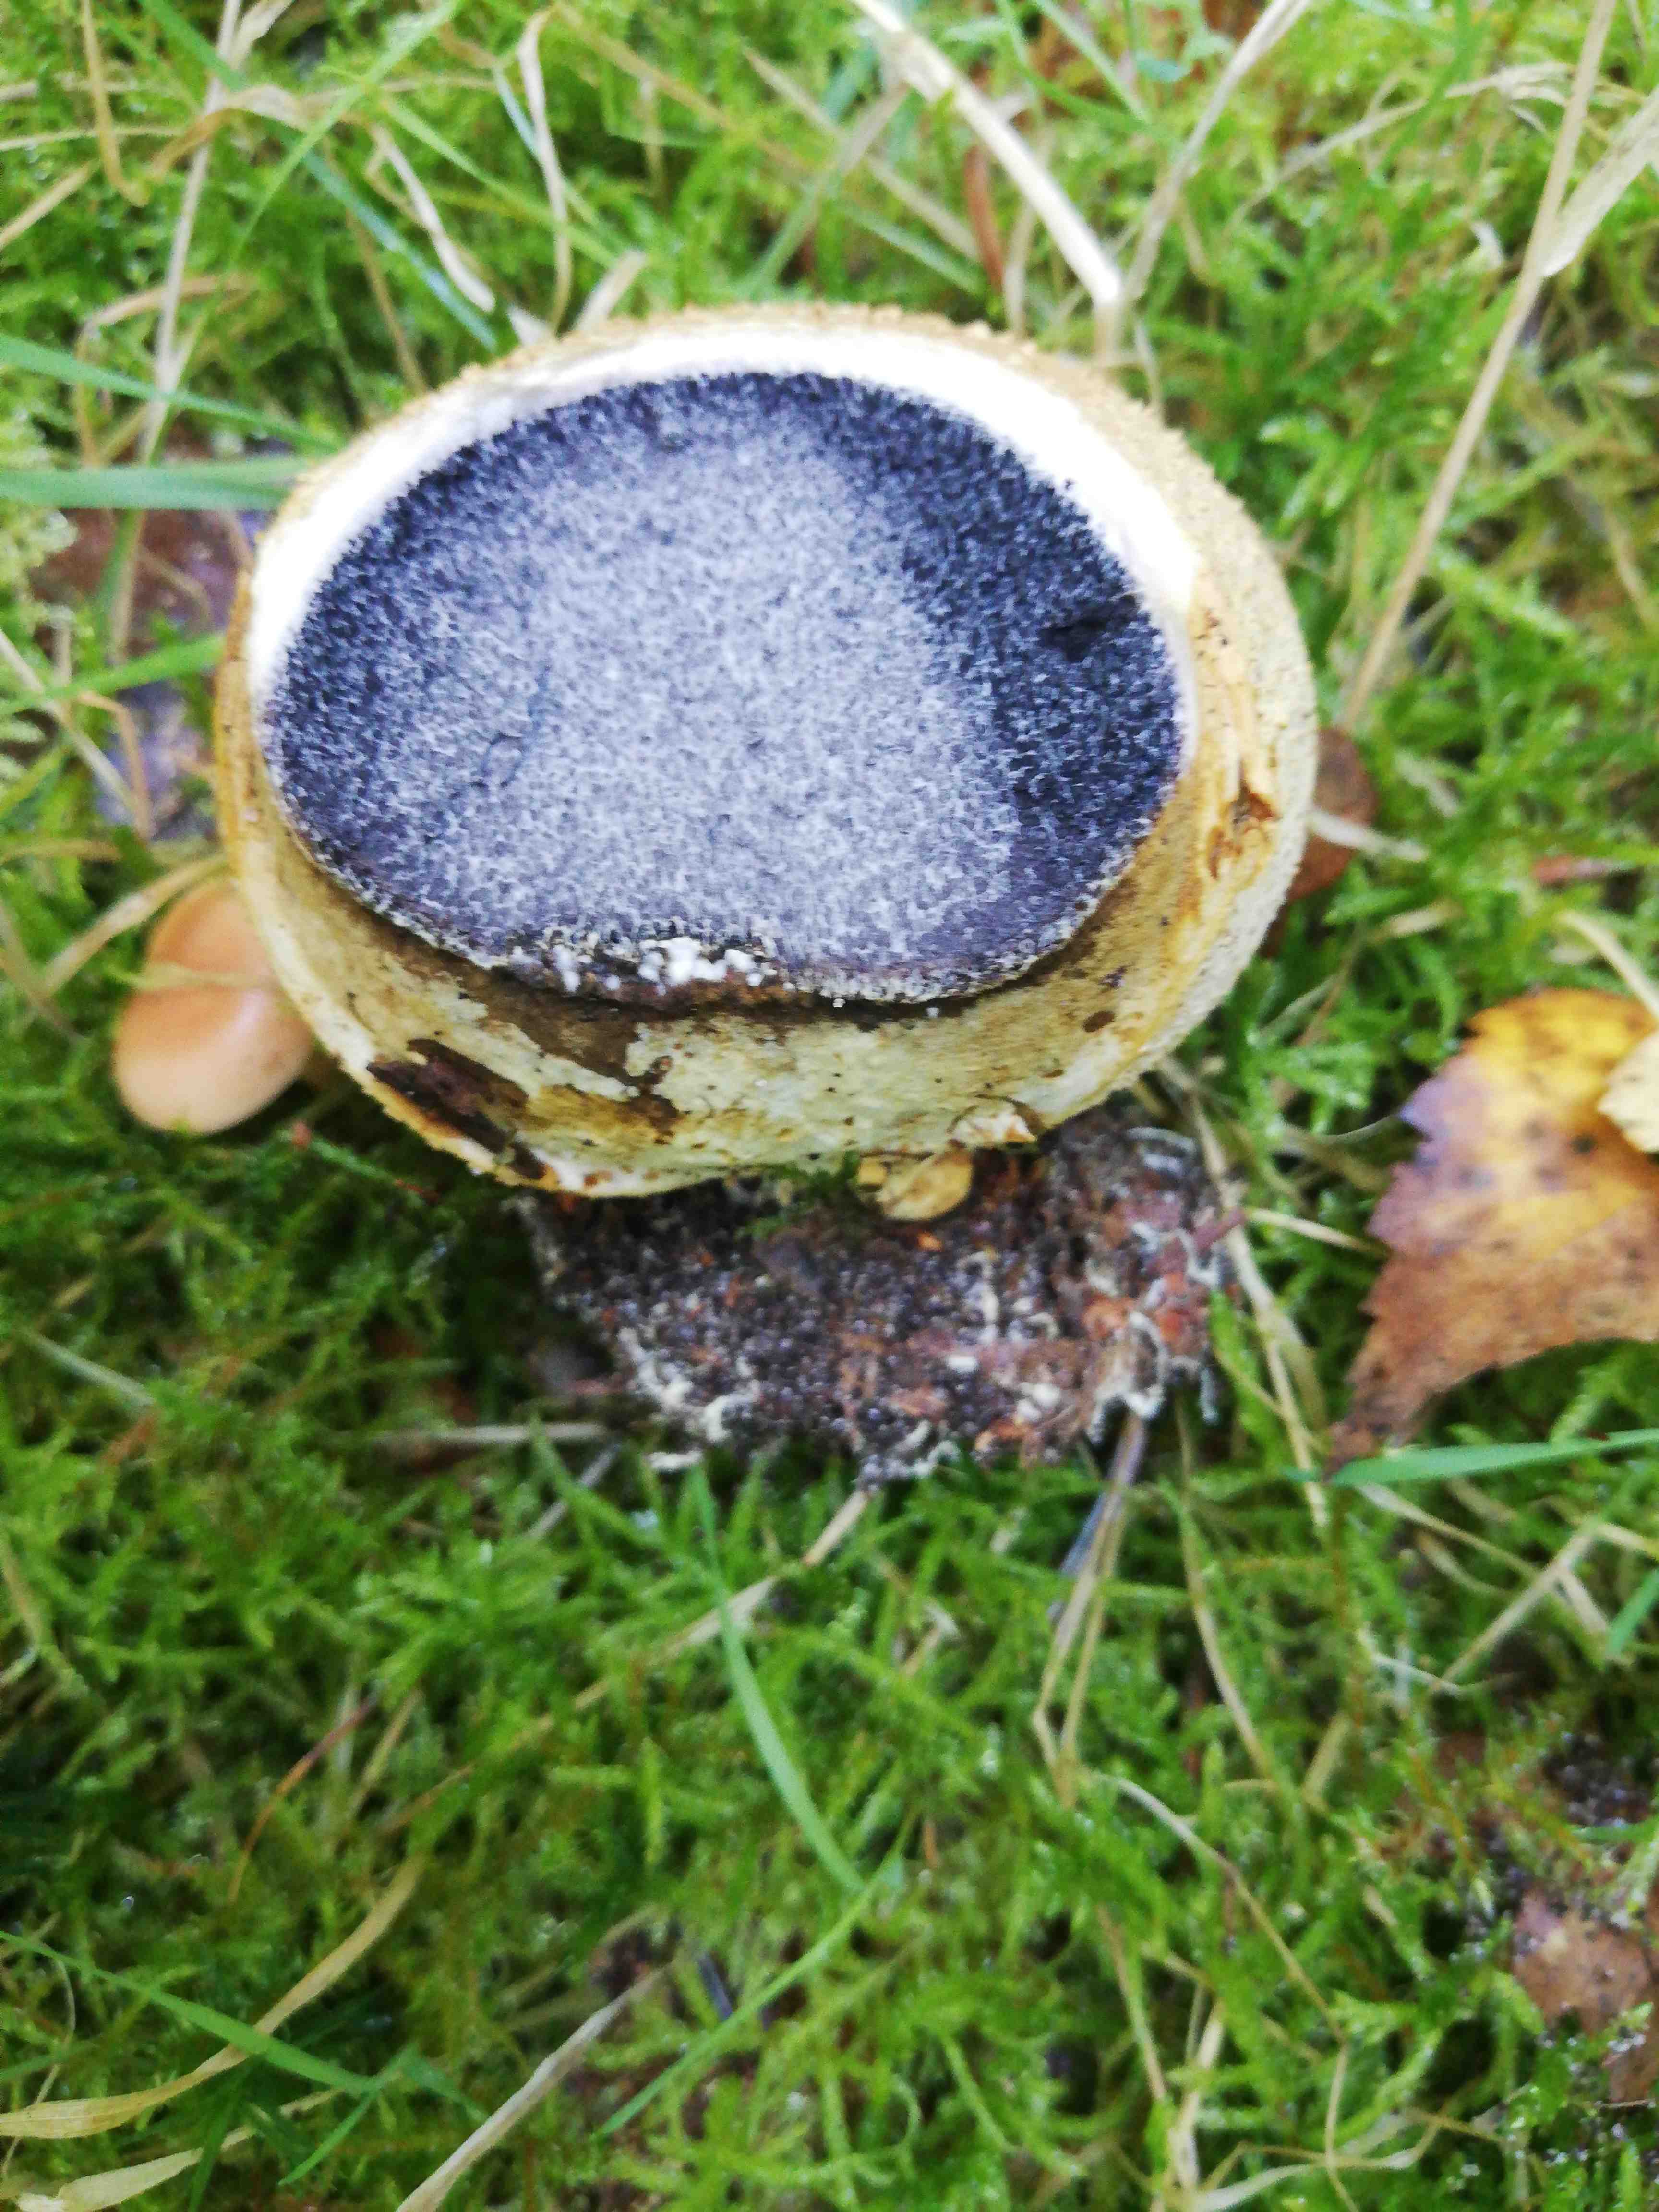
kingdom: Fungi
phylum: Basidiomycota
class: Agaricomycetes
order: Boletales
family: Sclerodermataceae
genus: Scleroderma
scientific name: Scleroderma citrinum
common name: almindelig bruskbold
